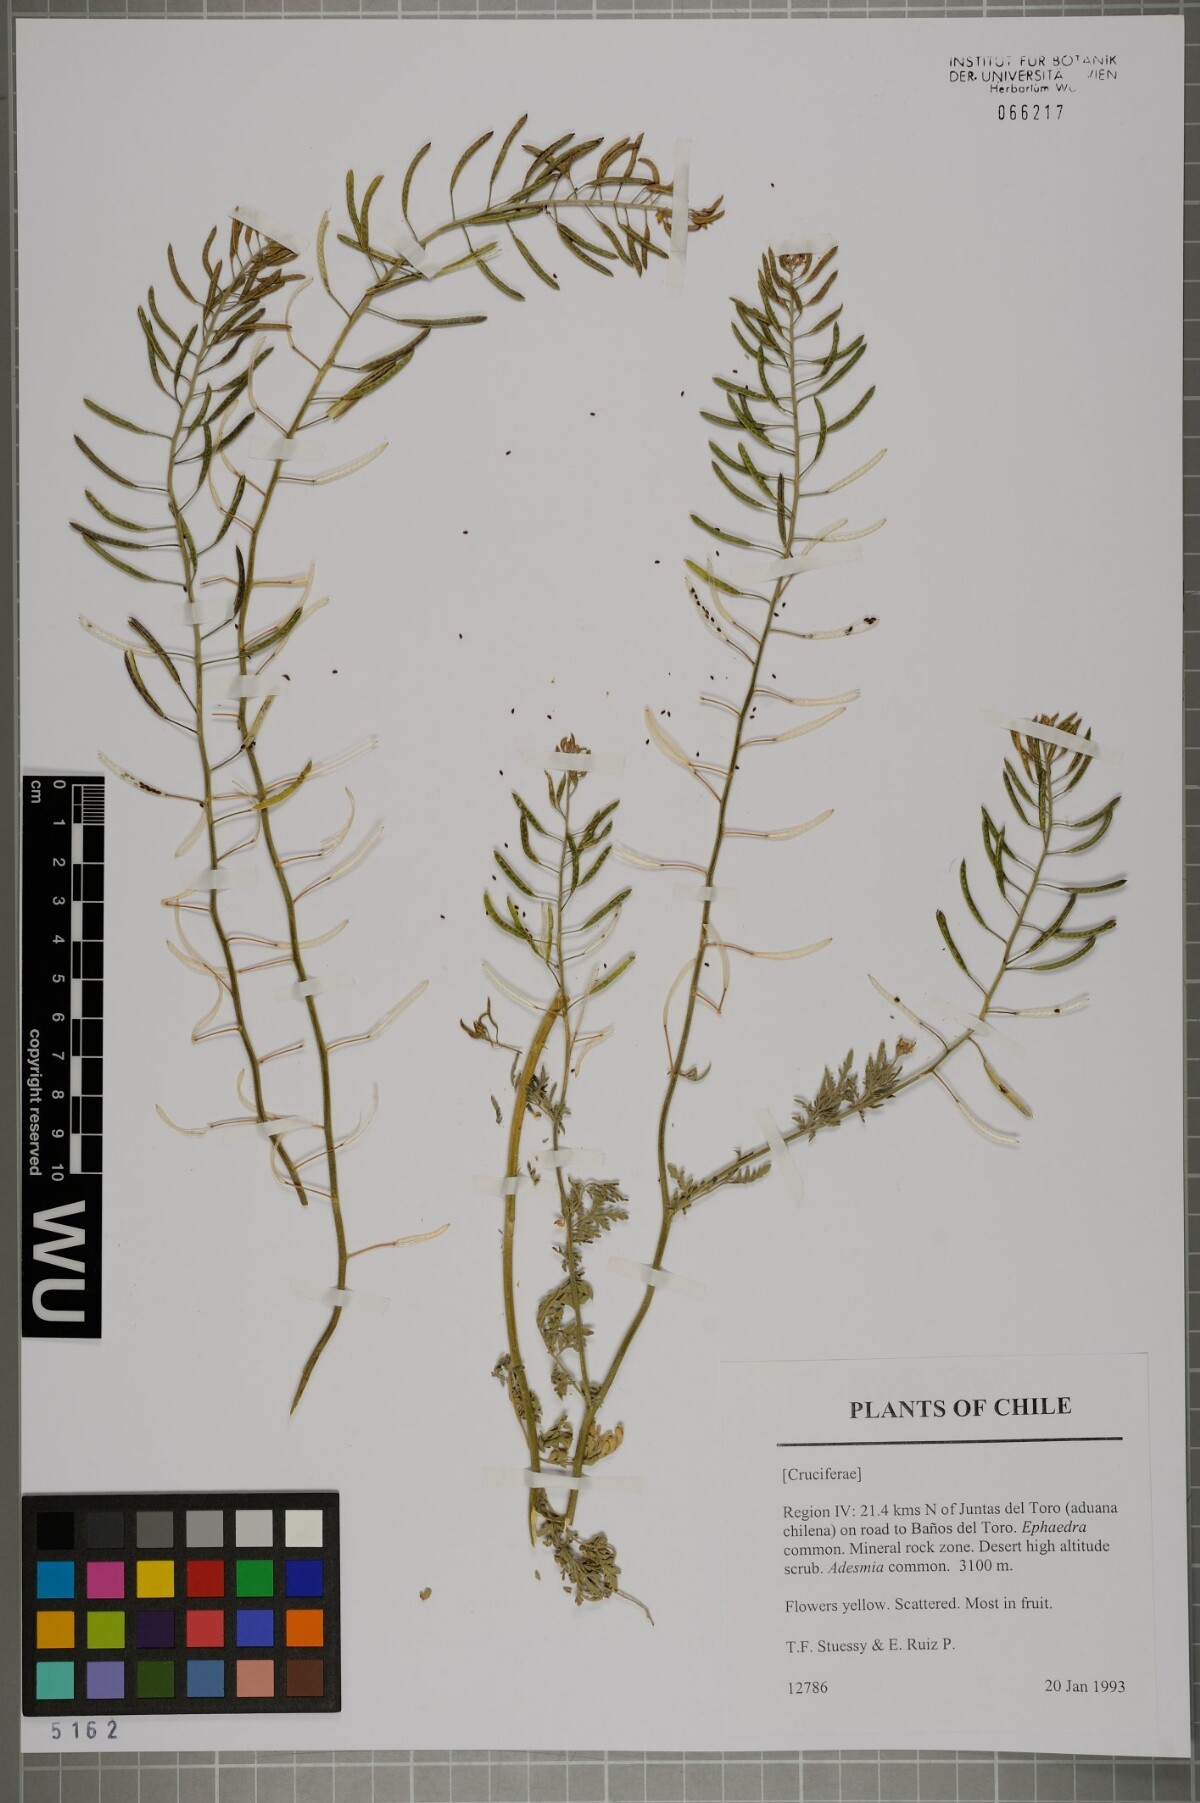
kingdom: Plantae
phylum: Tracheophyta
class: Magnoliopsida
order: Brassicales
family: Brassicaceae
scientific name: Brassicaceae
